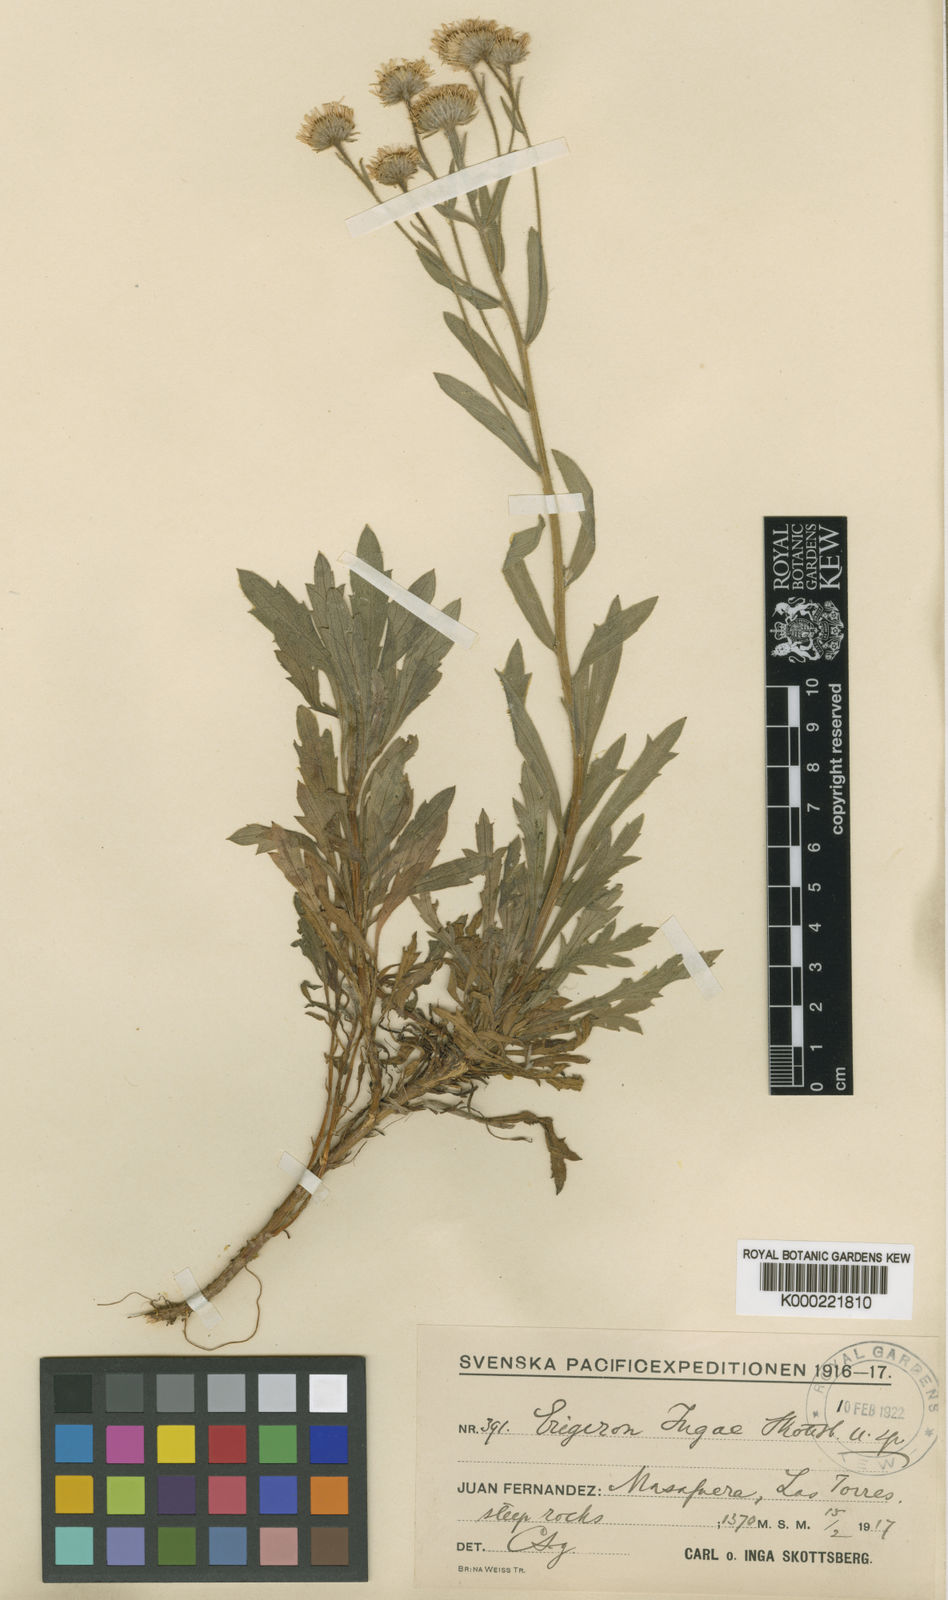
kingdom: Plantae
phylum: Tracheophyta
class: Magnoliopsida
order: Asterales
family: Asteraceae
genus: Erigeron
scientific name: Erigeron ingae
